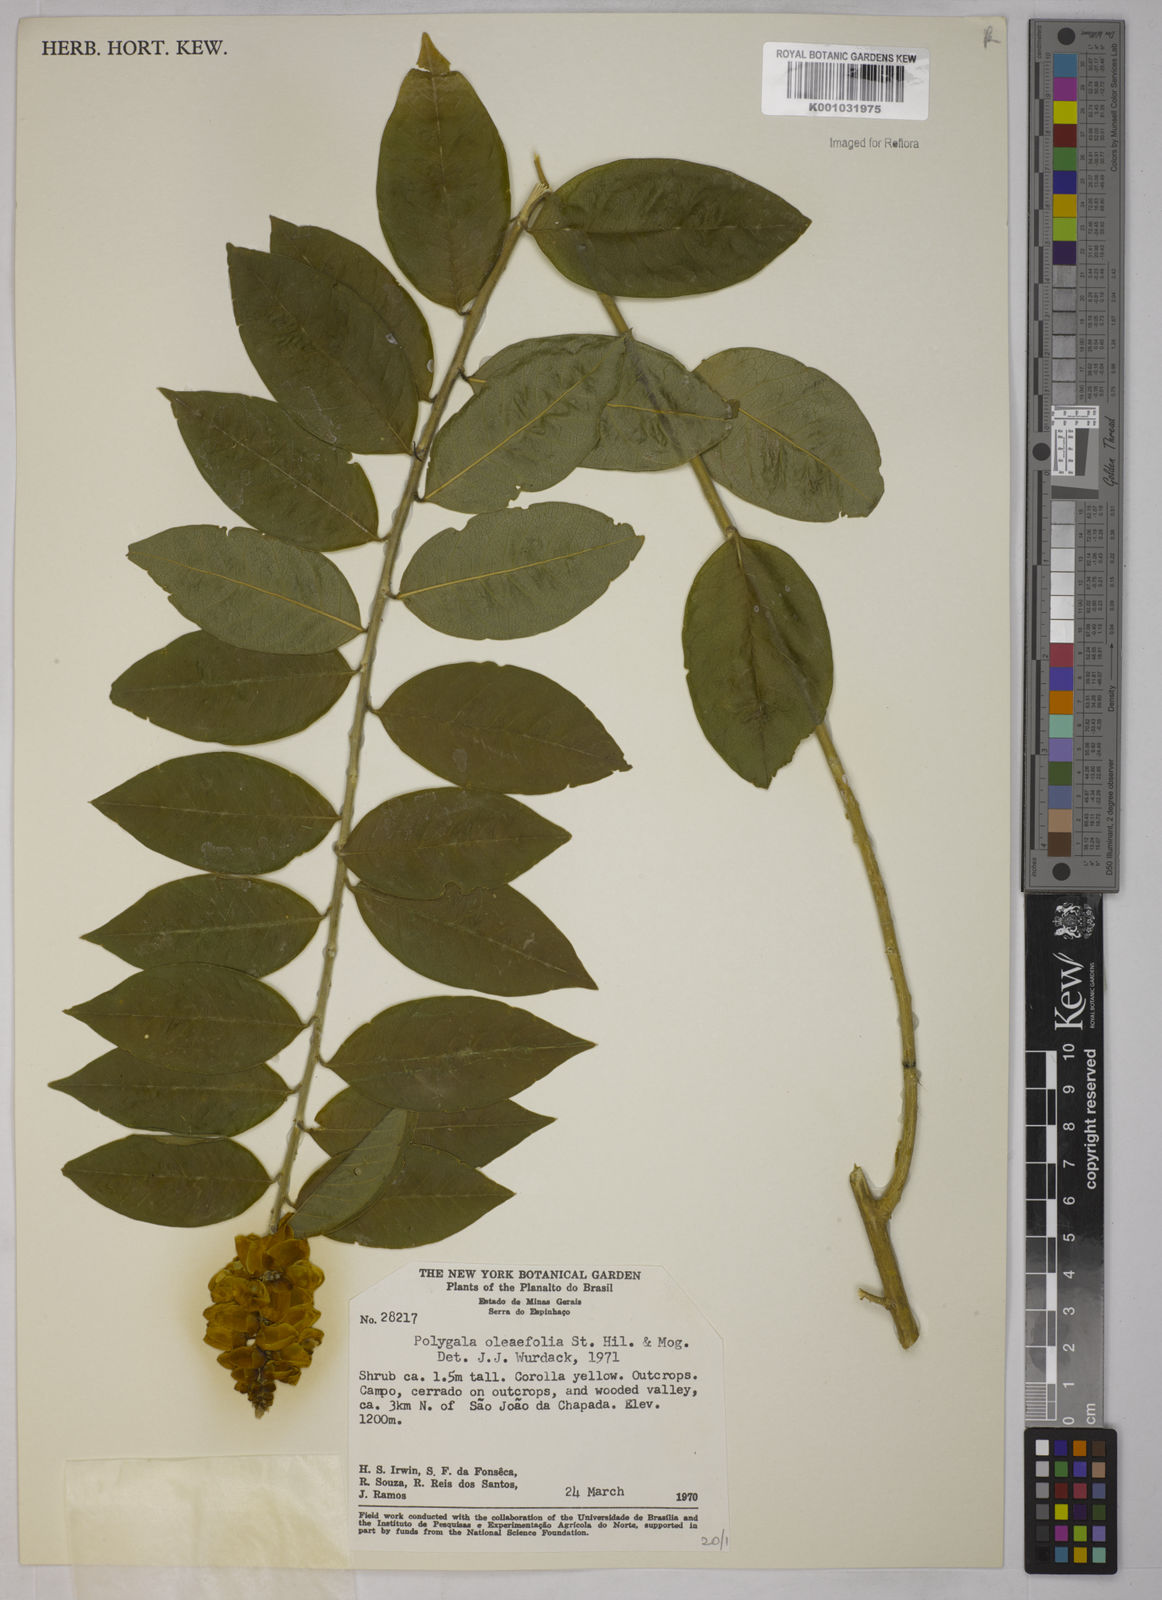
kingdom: Plantae
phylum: Tracheophyta
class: Magnoliopsida
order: Fabales
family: Polygalaceae
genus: Caamembeca
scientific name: Caamembeca oleifolia
